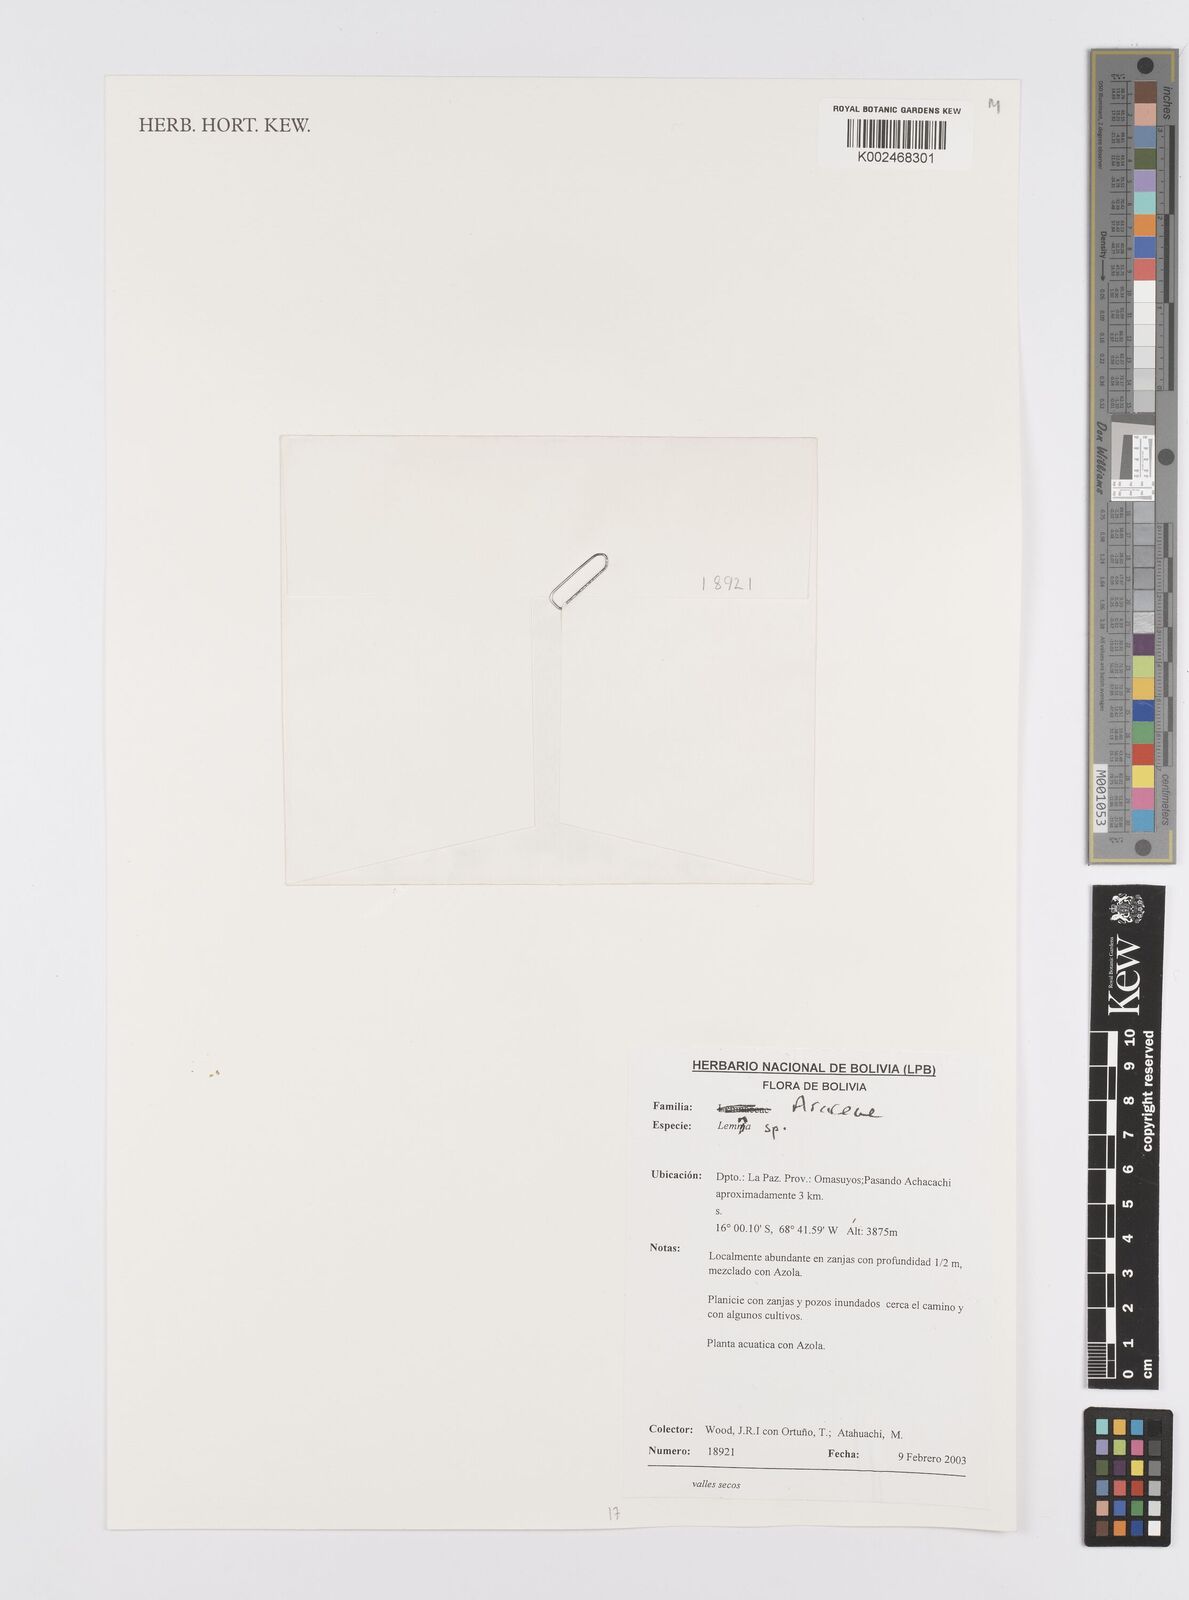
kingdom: Plantae
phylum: Tracheophyta
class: Liliopsida
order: Alismatales
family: Araceae
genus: Lemna
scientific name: Lemna
